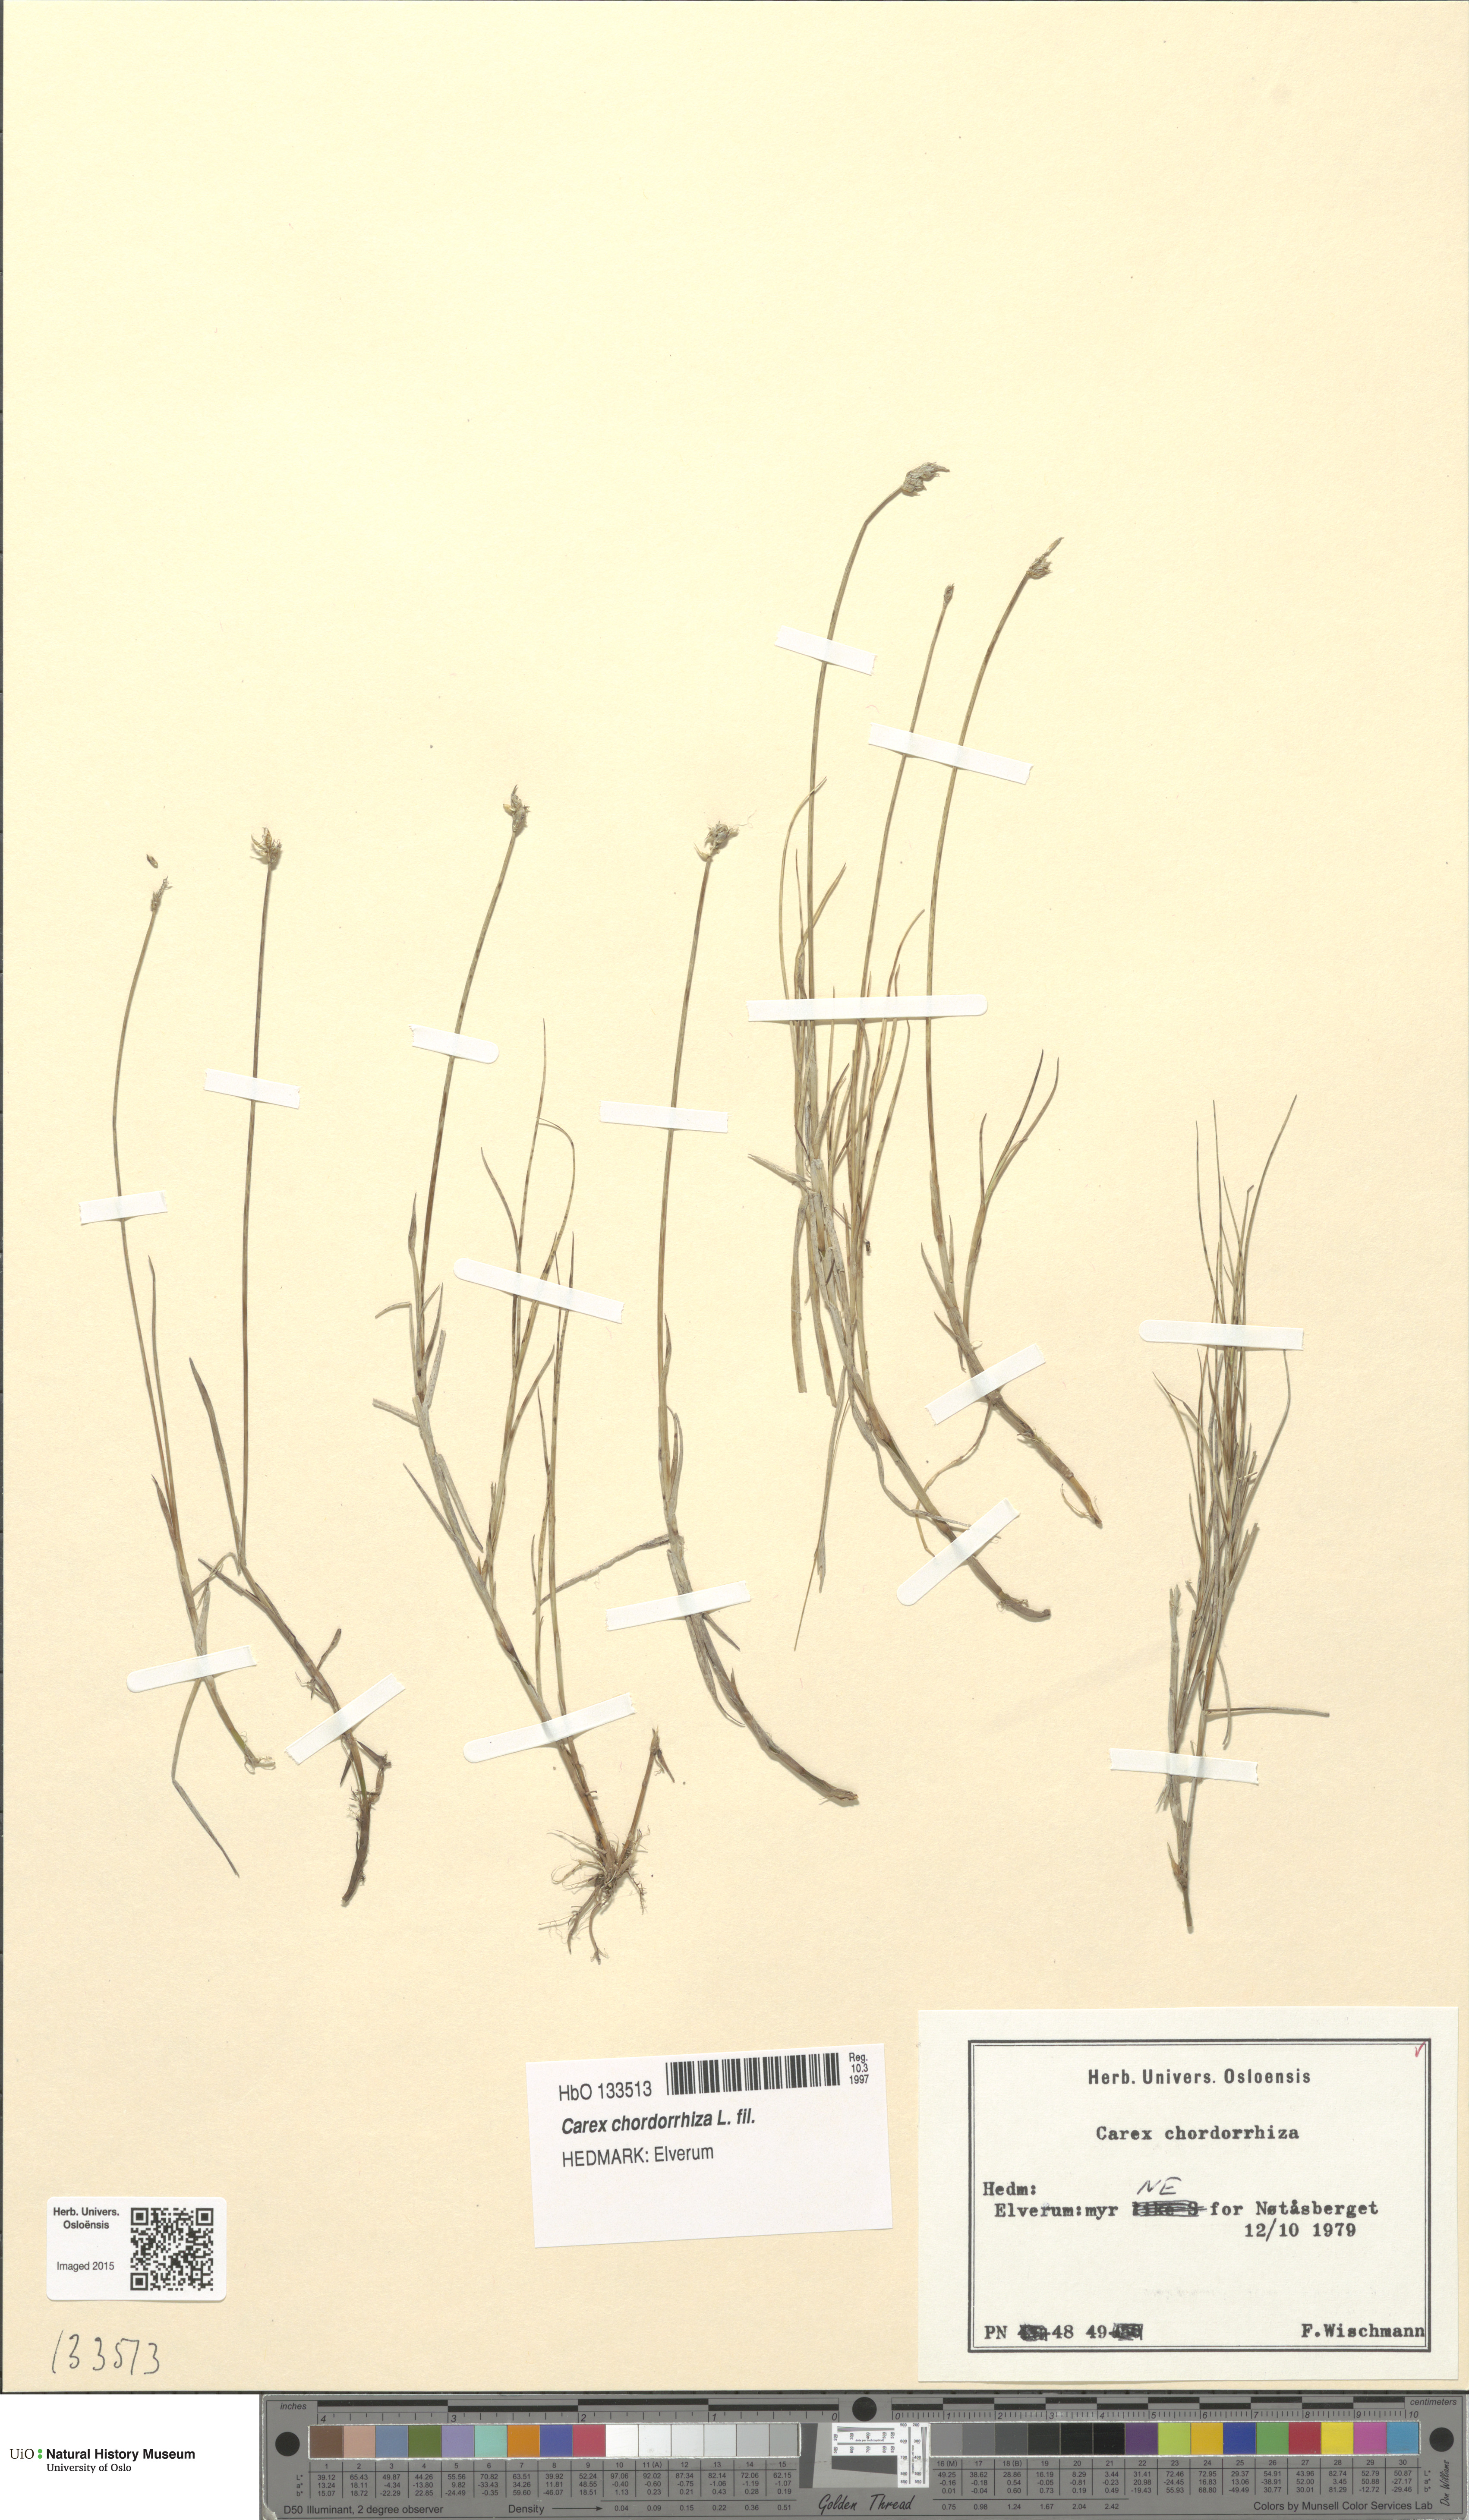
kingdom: Plantae
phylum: Tracheophyta
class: Liliopsida
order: Poales
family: Cyperaceae
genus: Carex
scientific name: Carex chordorrhiza
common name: String sedge
